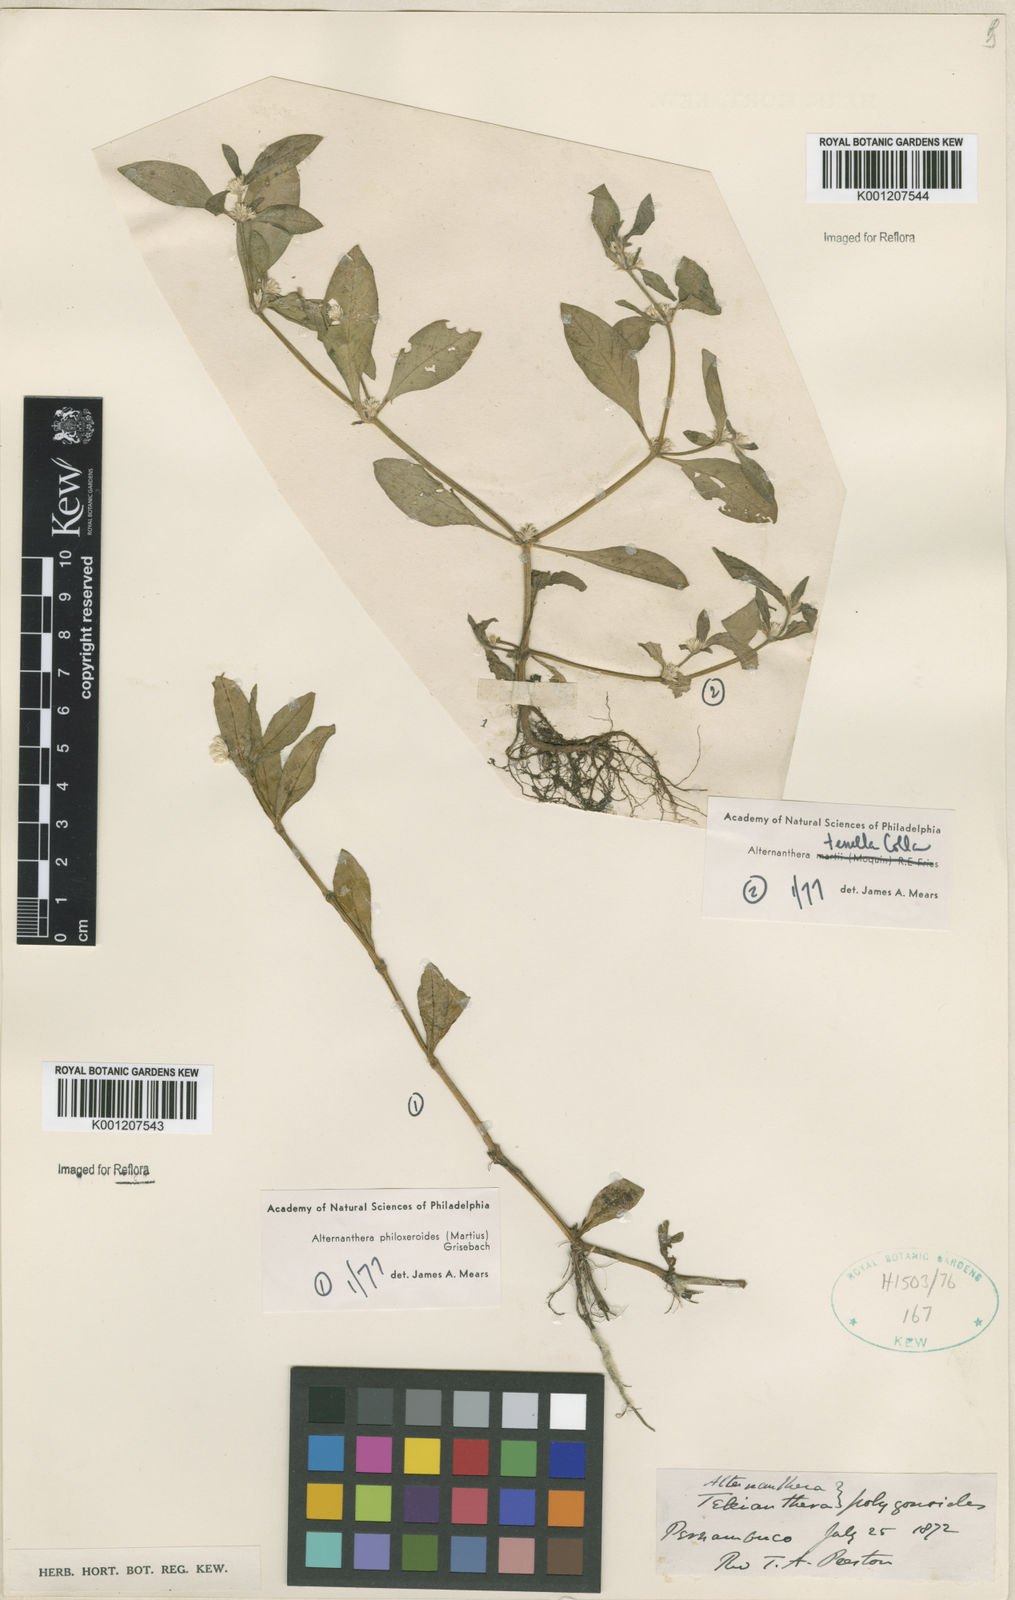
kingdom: Plantae
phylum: Tracheophyta
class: Magnoliopsida
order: Caryophyllales
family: Amaranthaceae
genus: Alternanthera
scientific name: Alternanthera philoxeroides
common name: Alligatorweed
